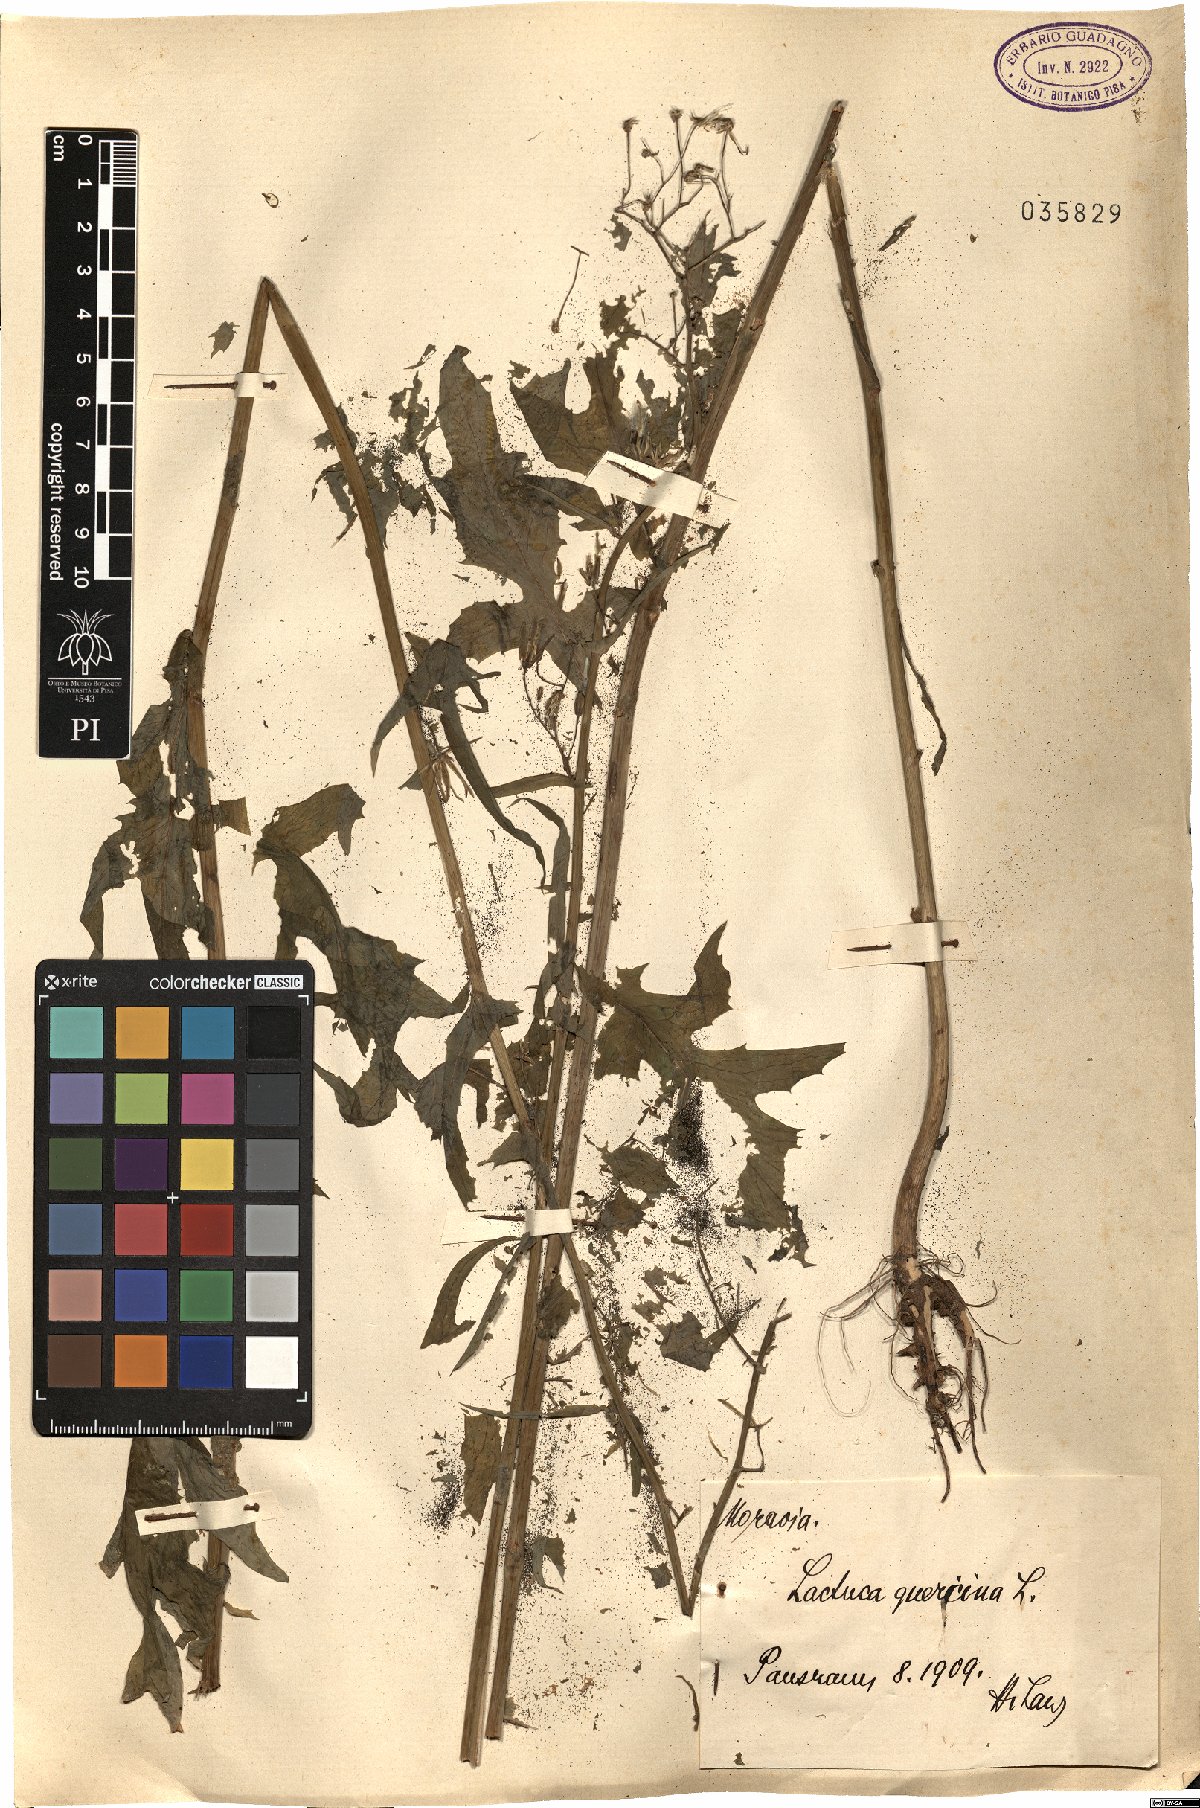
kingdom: Plantae
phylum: Tracheophyta
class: Magnoliopsida
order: Asterales
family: Asteraceae
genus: Lactuca
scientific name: Lactuca quercina
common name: Wild lettuce
